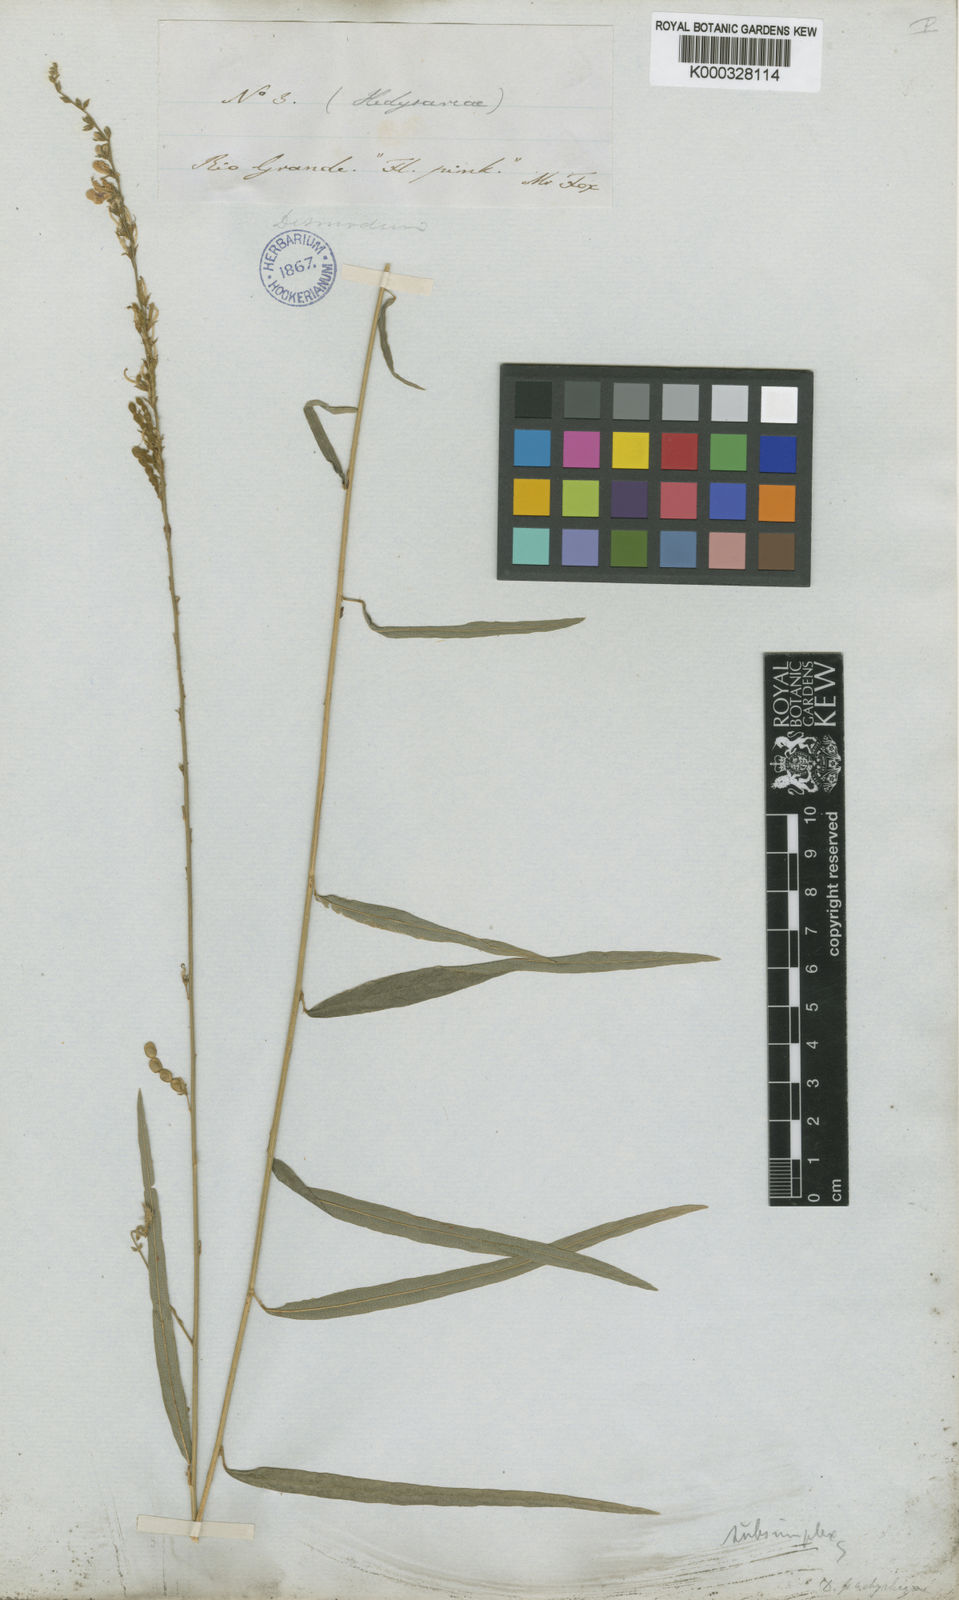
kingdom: Plantae
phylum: Tracheophyta
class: Magnoliopsida
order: Fabales
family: Fabaceae
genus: Desmodium
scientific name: Desmodium polygaloides
